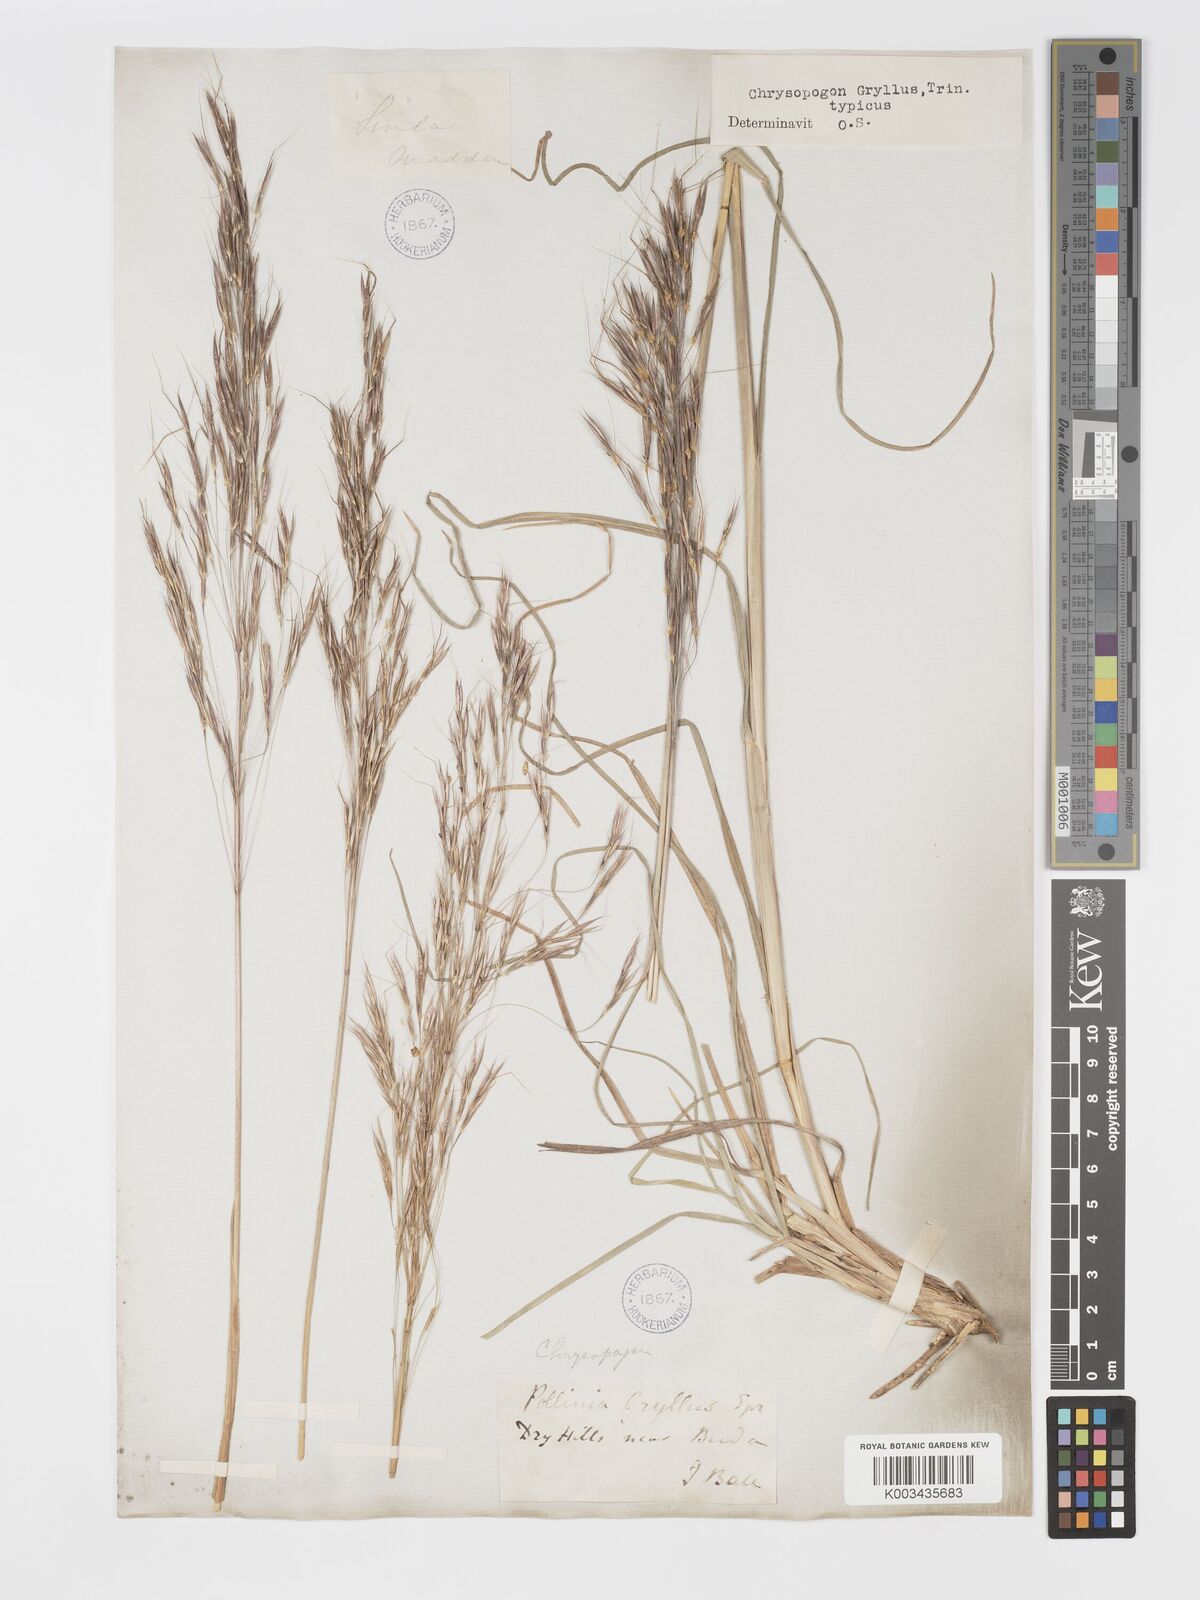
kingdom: Plantae
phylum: Tracheophyta
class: Liliopsida
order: Poales
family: Poaceae
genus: Chrysopogon
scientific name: Chrysopogon gryllus
